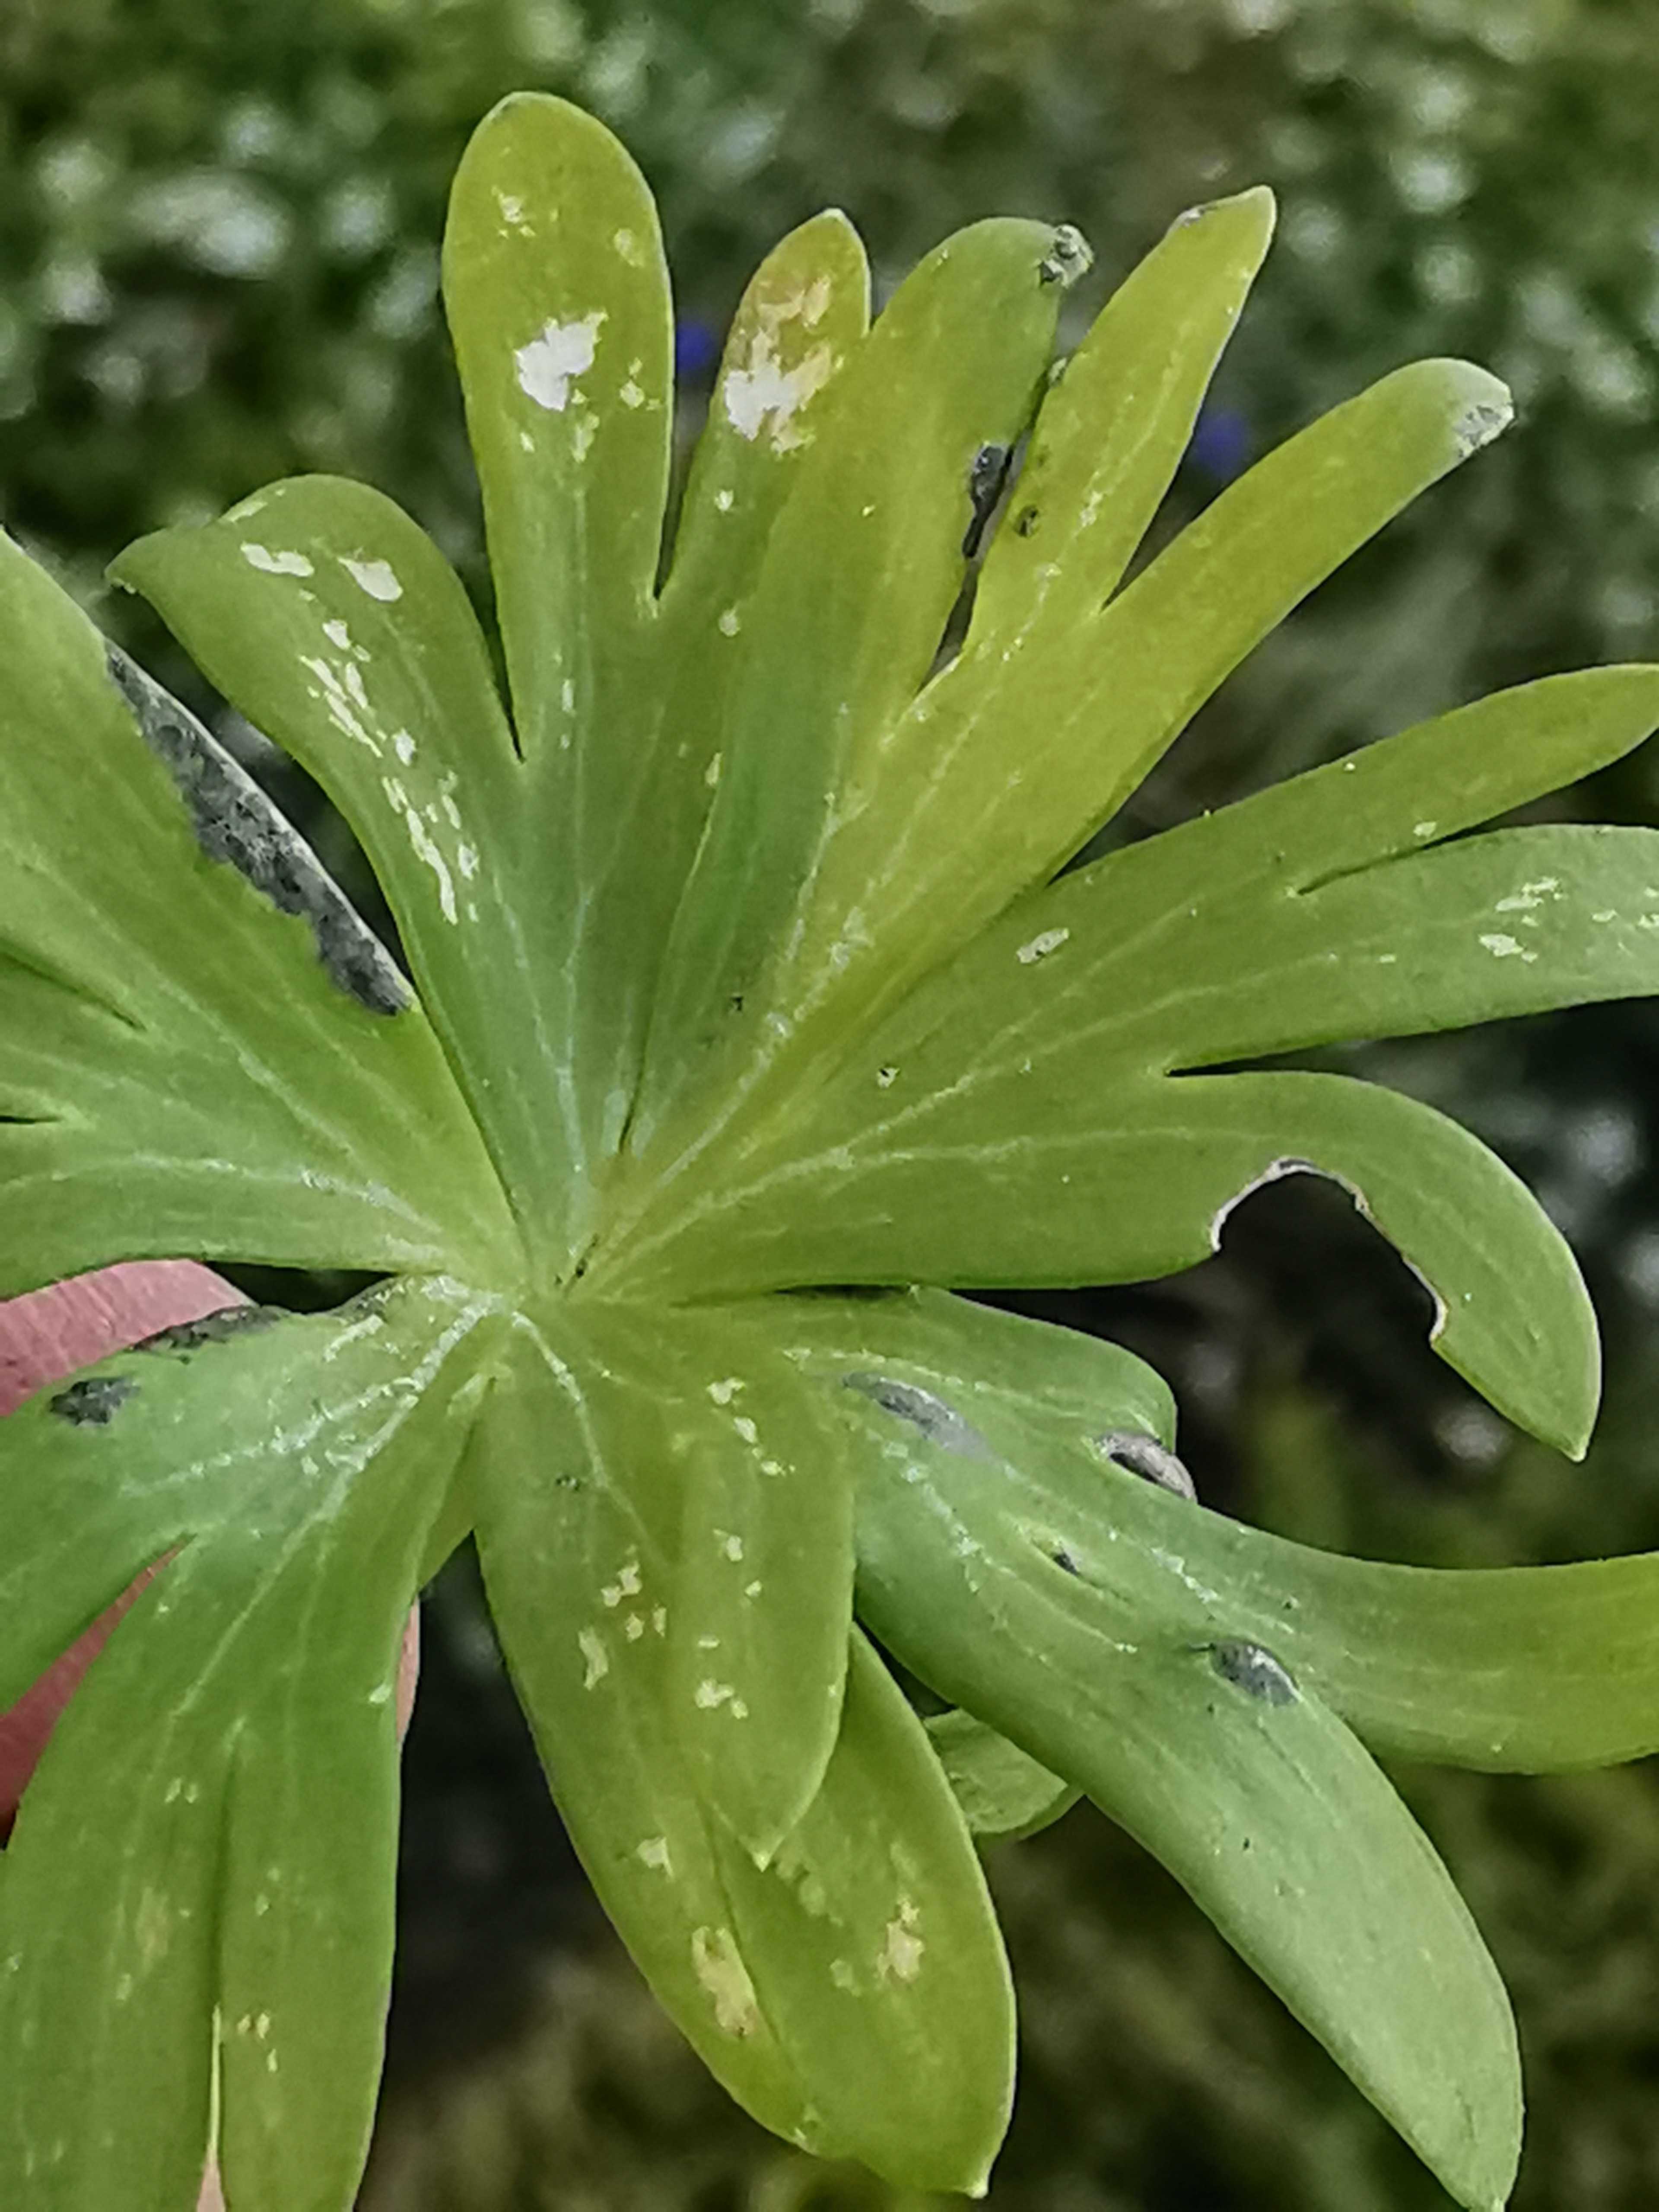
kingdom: Fungi
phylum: Basidiomycota
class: Ustilaginomycetes
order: Urocystidales
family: Urocystidaceae
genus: Urocystis
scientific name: Urocystis eranthidis
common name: erantis-brand
